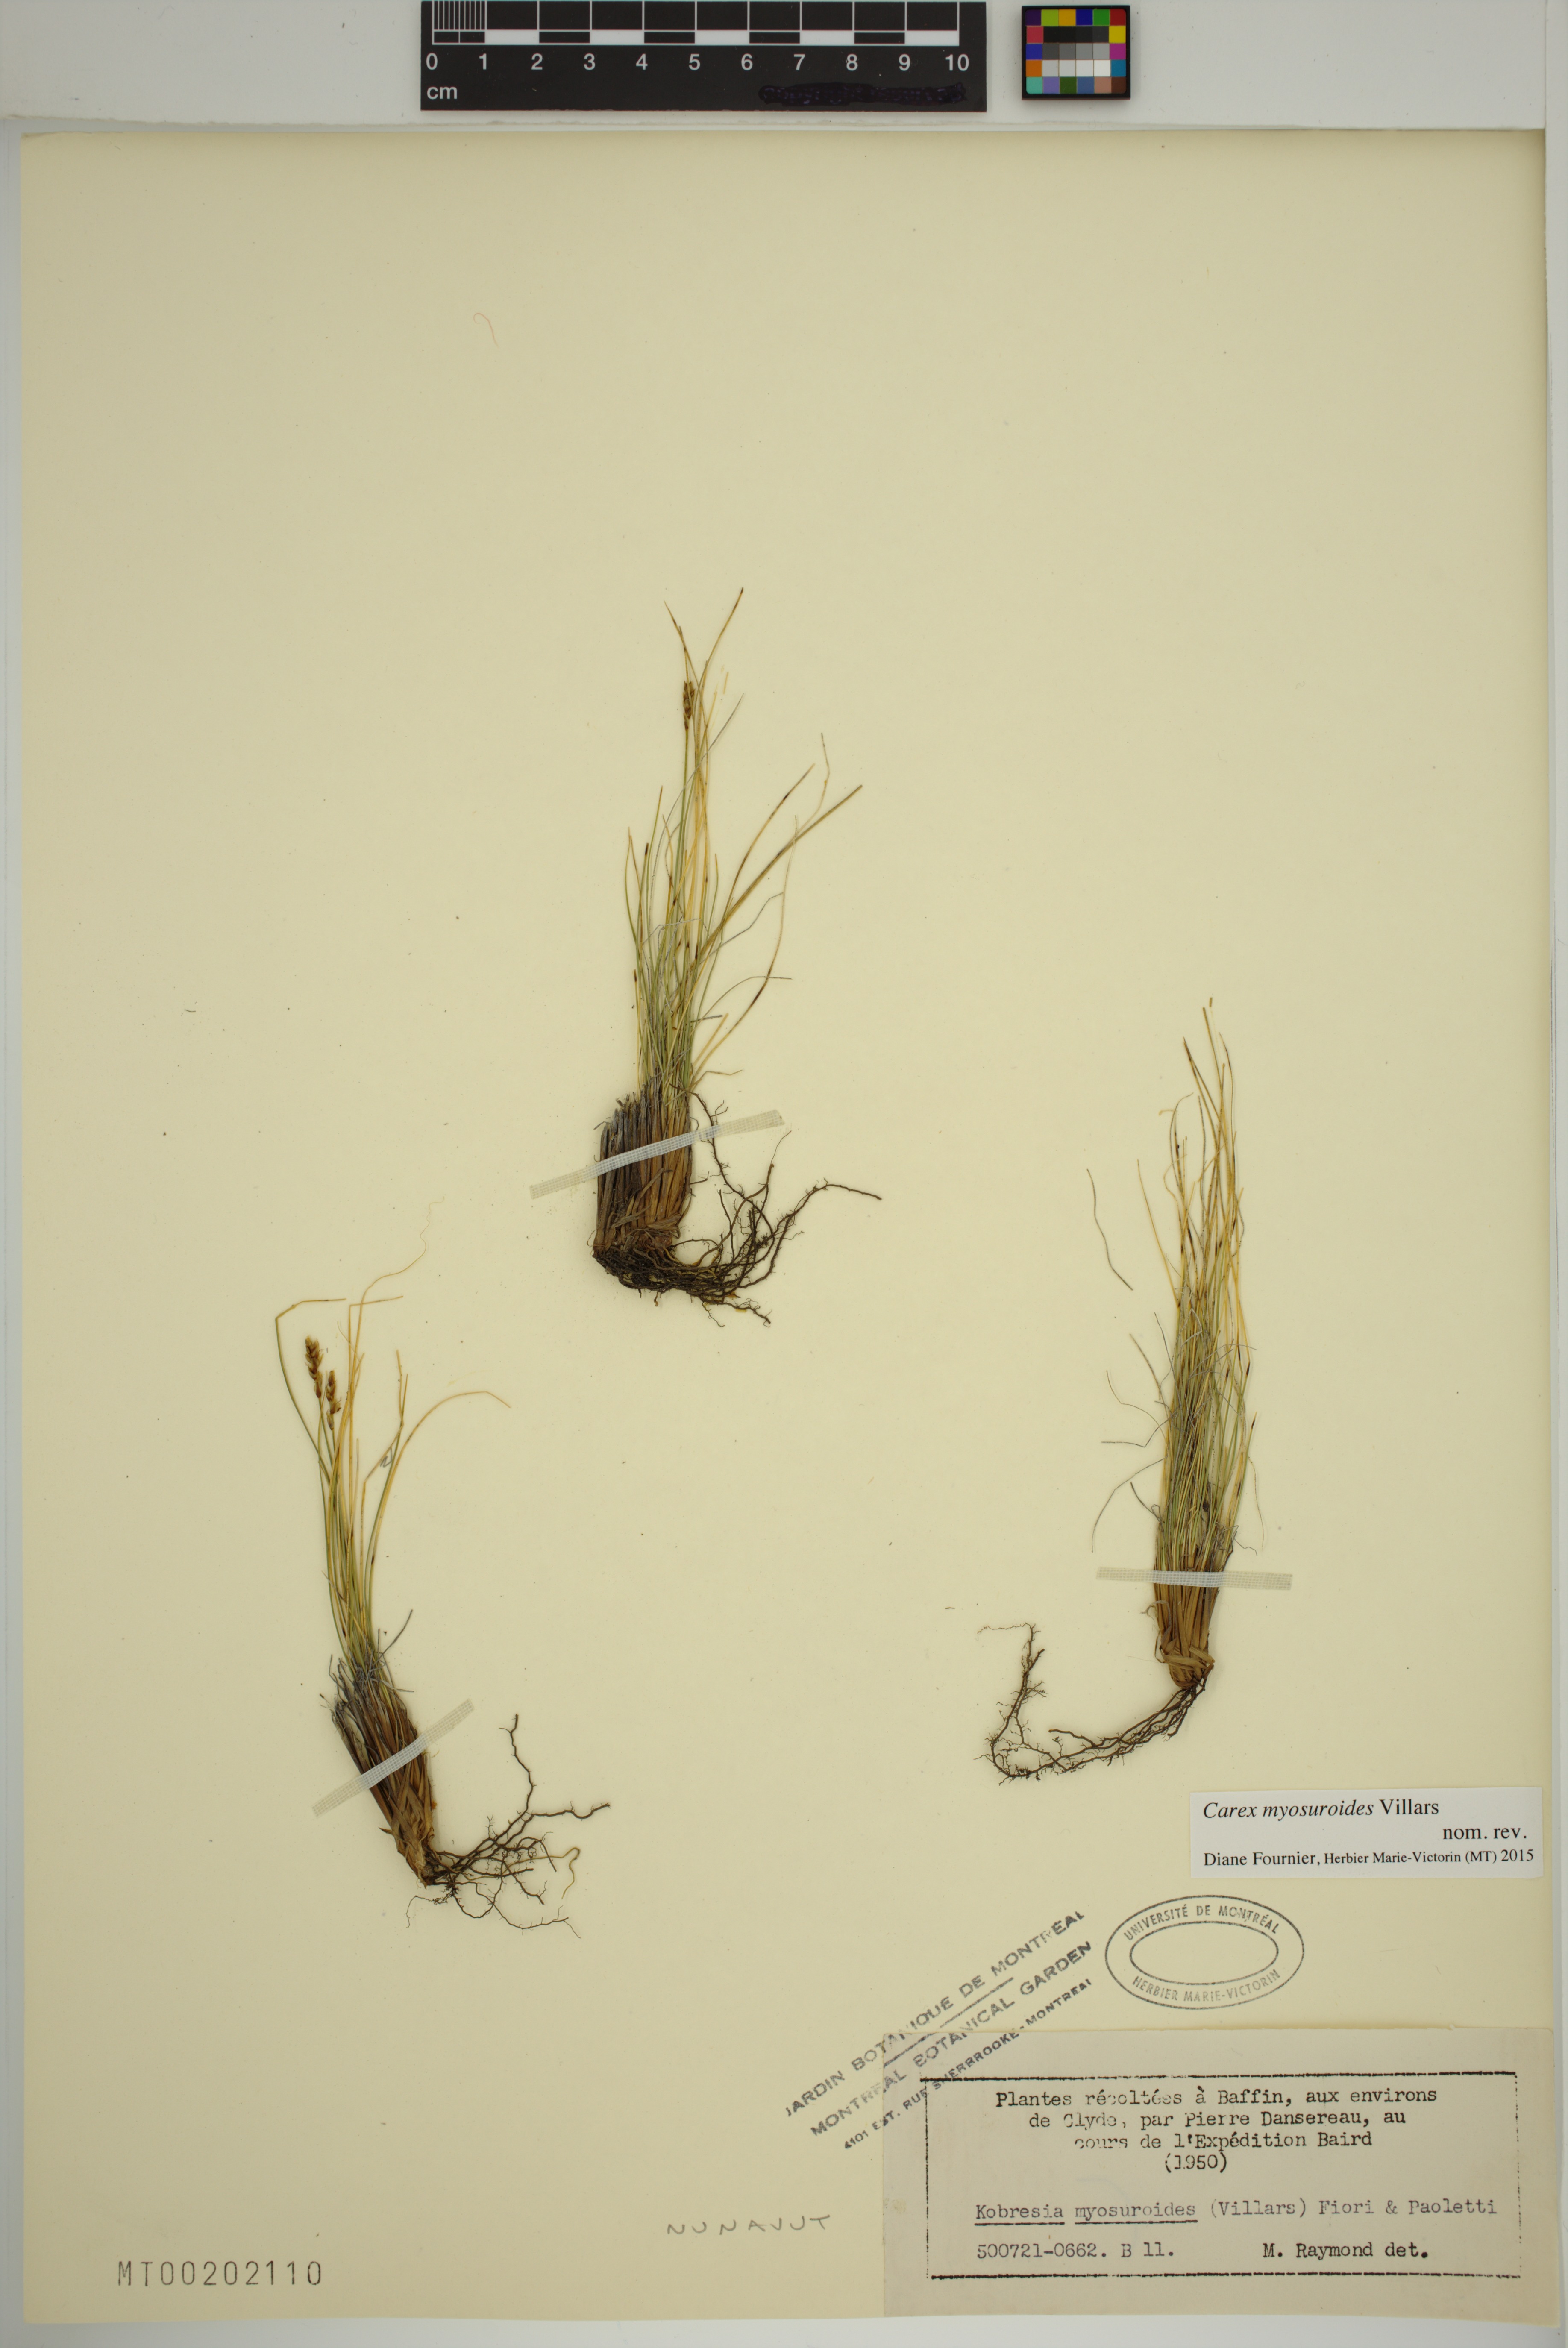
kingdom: Plantae
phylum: Tracheophyta
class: Liliopsida
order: Poales
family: Cyperaceae
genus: Carex
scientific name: Carex myosuroides
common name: Bellard's bog sedge
